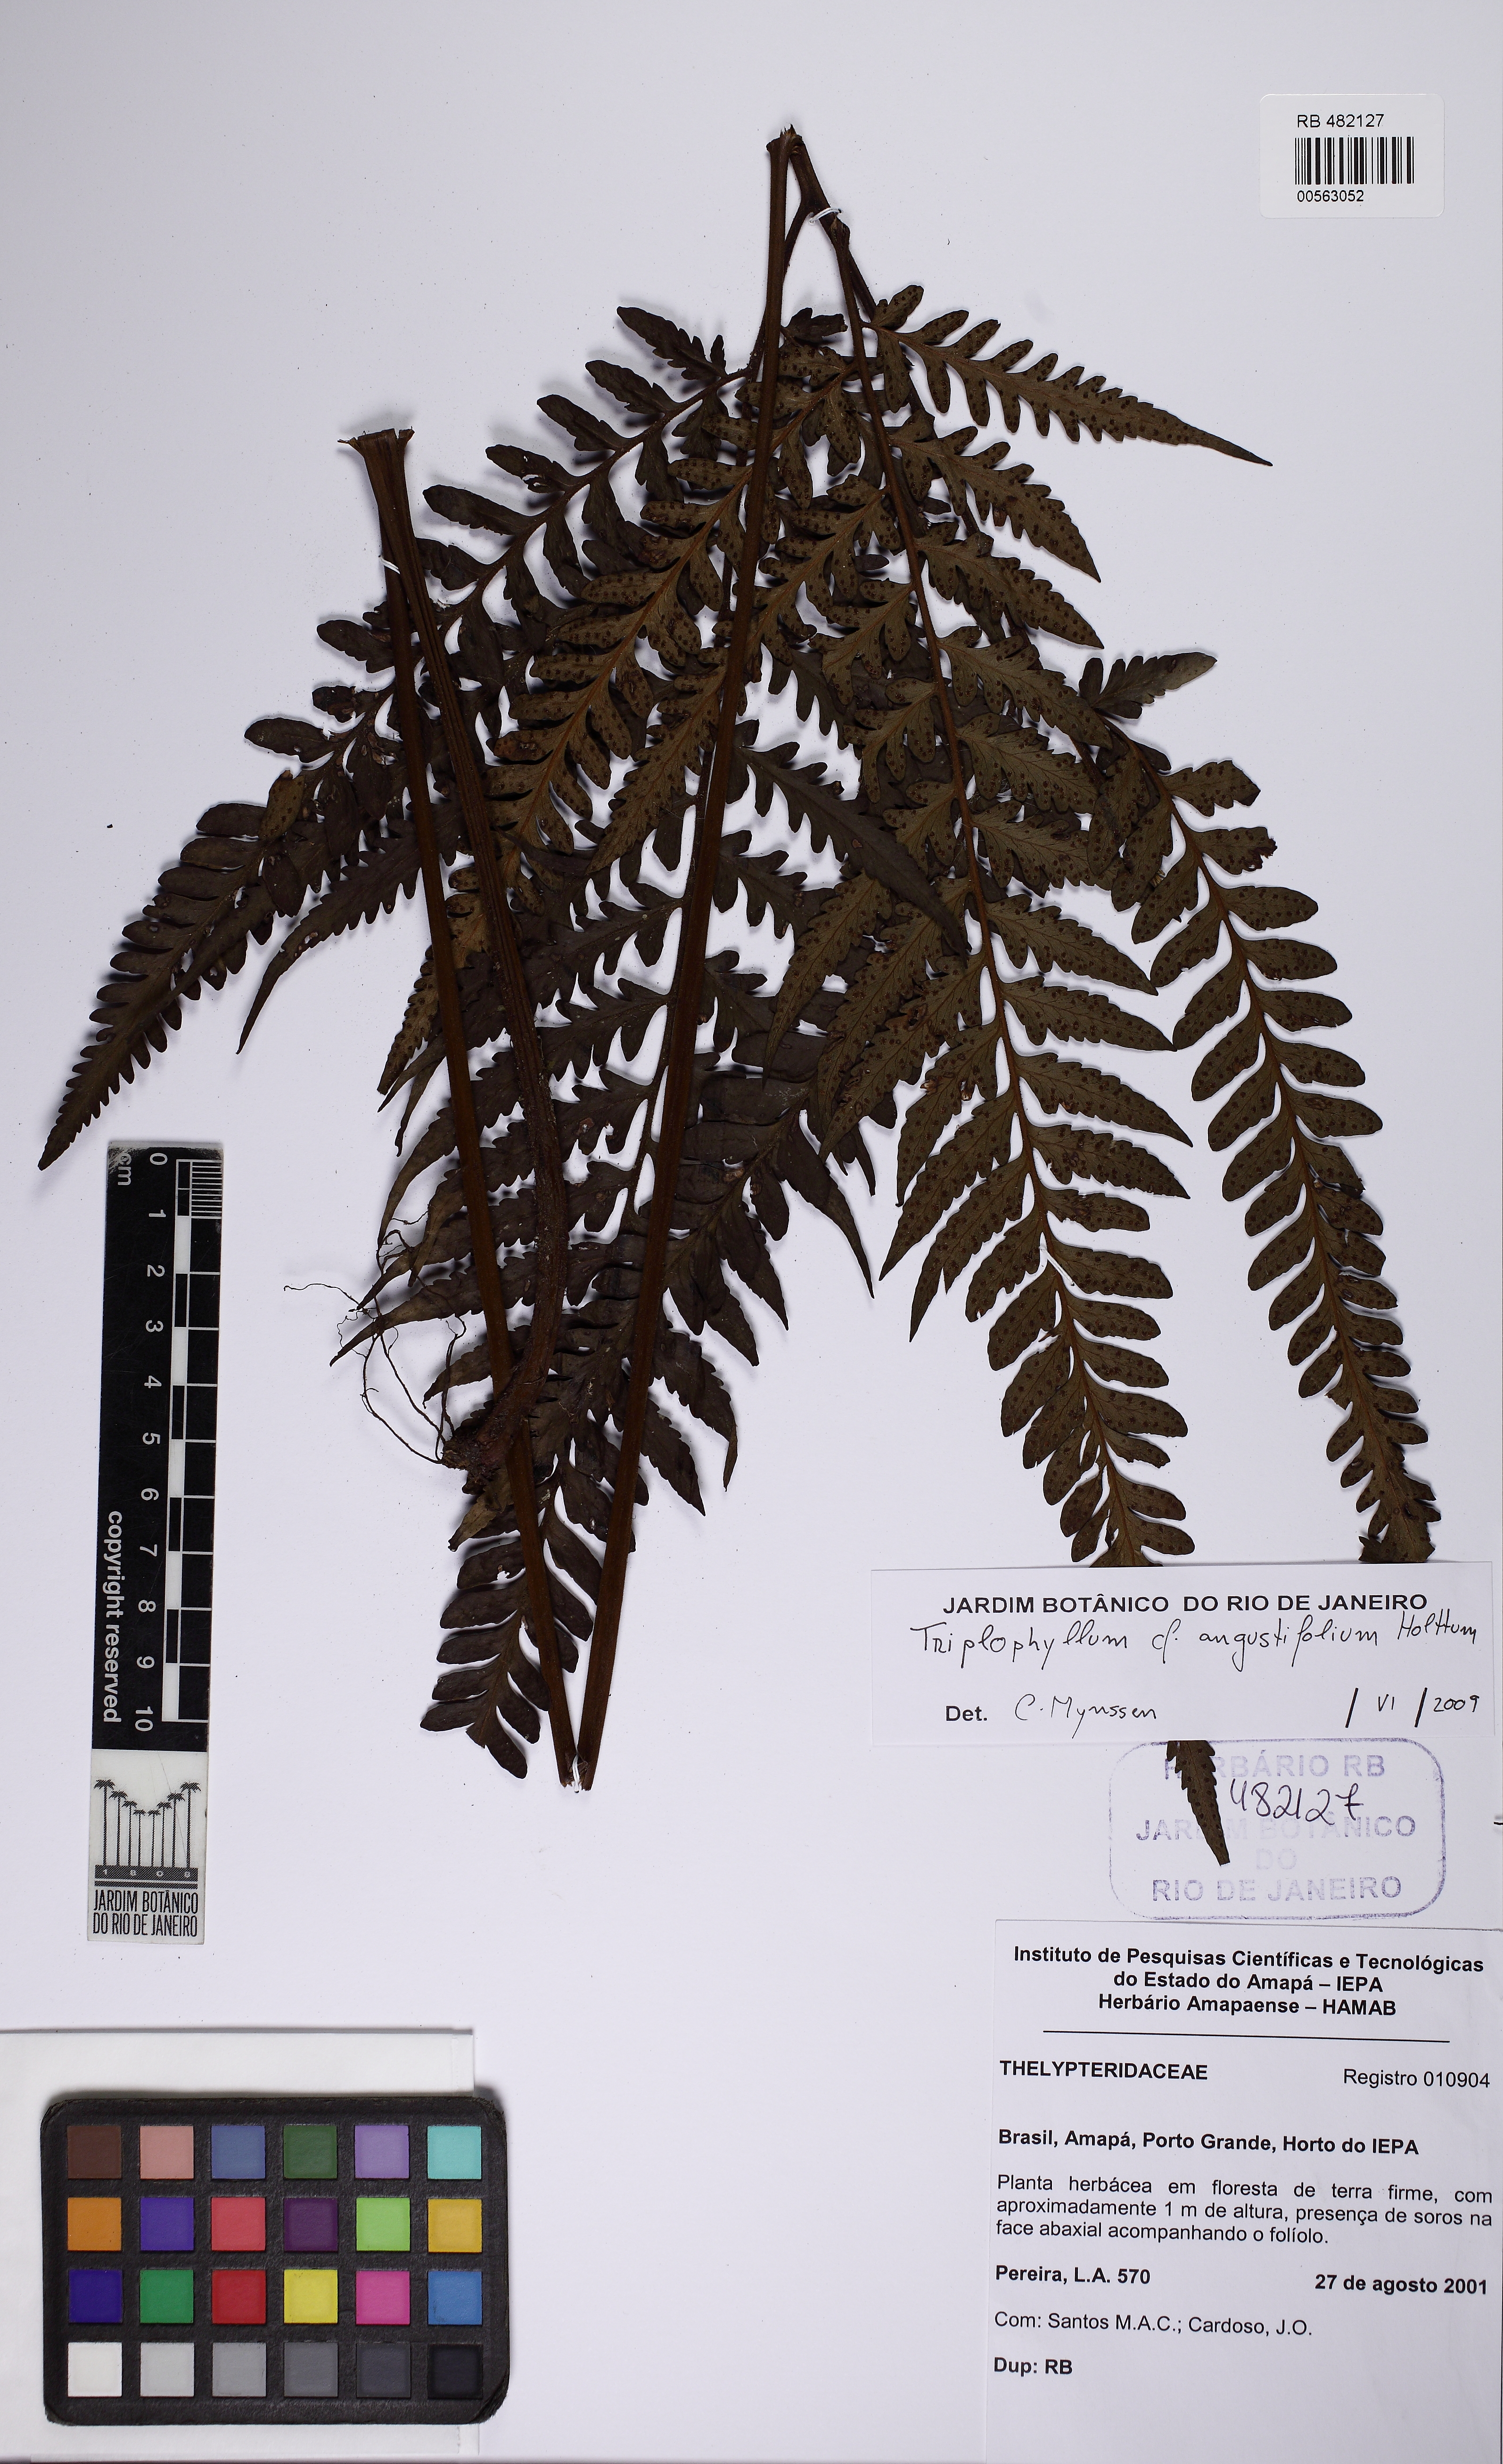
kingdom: Plantae
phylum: Tracheophyta
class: Polypodiopsida
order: Polypodiales
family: Tectariaceae
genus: Triplophyllum
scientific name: Triplophyllum angustifolium
